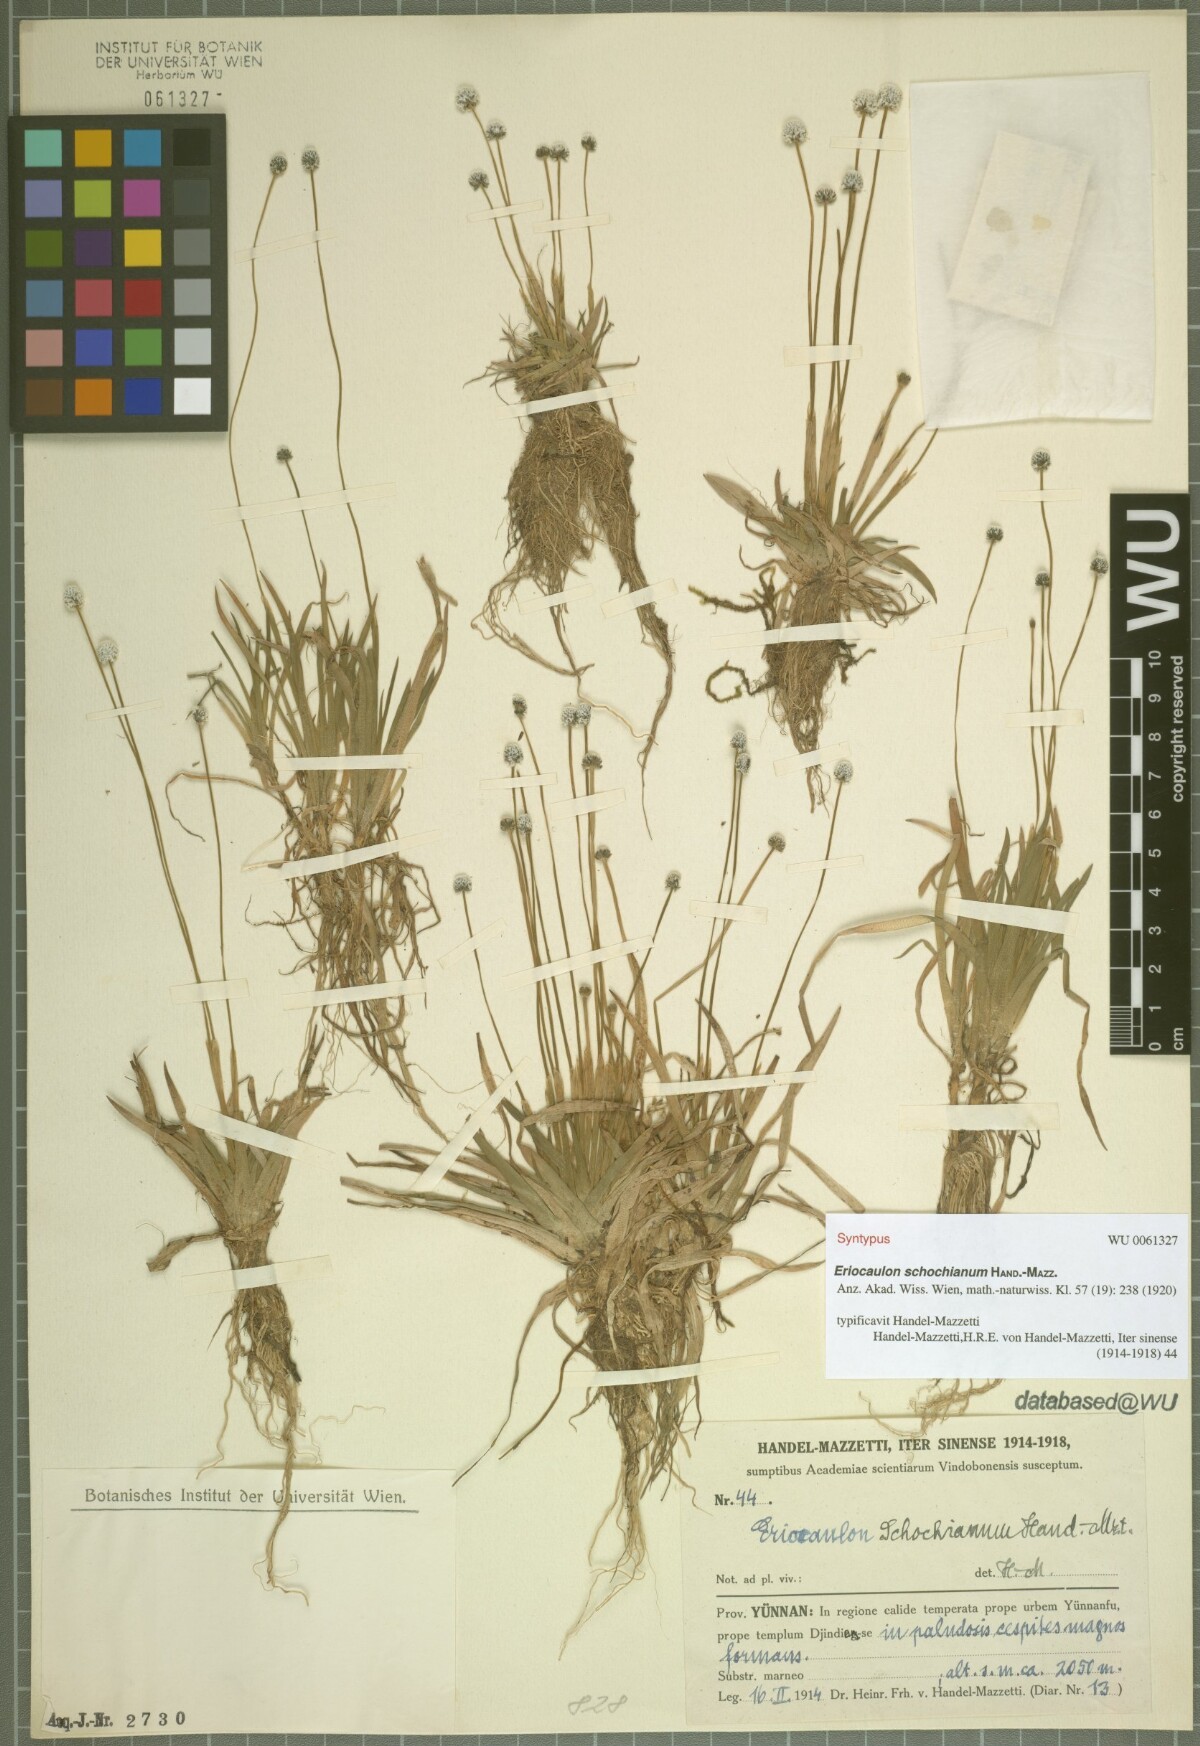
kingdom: Plantae
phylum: Tracheophyta
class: Liliopsida
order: Poales
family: Eriocaulaceae
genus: Eriocaulon
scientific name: Eriocaulon schochianum
